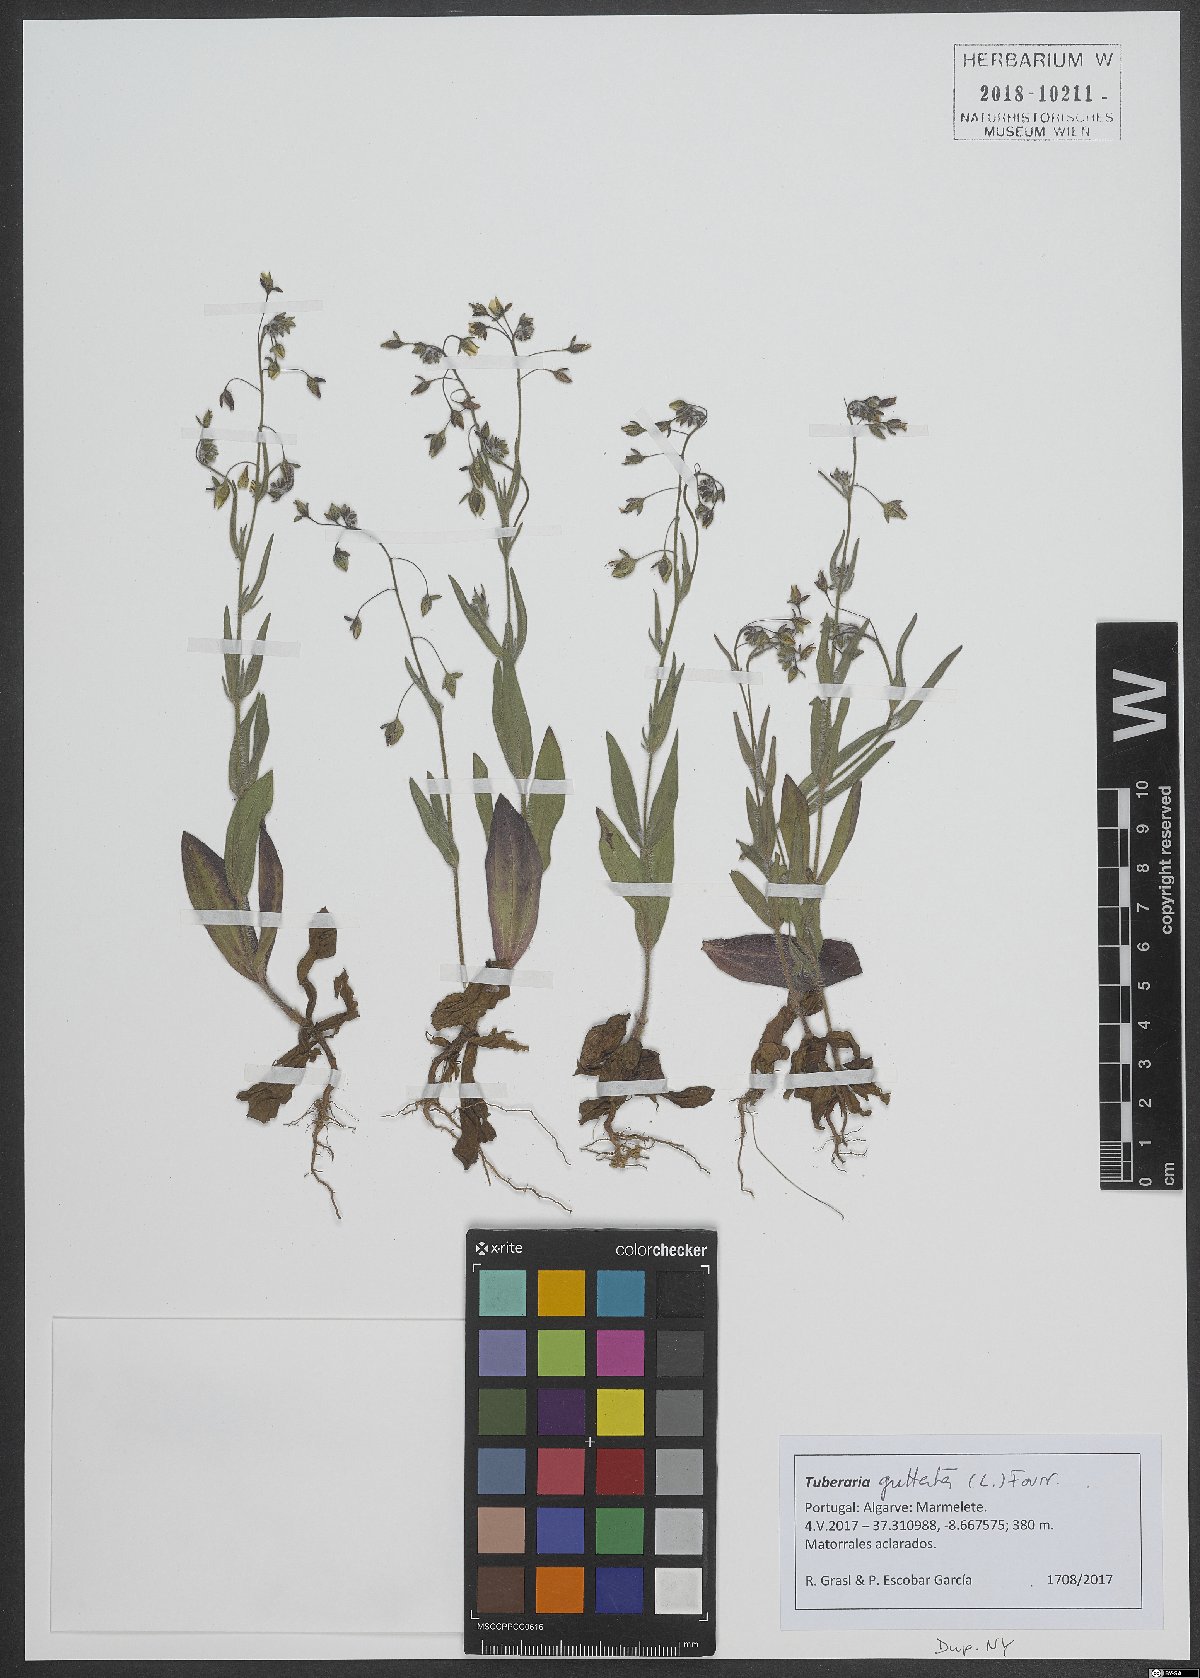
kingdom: Plantae
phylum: Tracheophyta
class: Magnoliopsida
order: Malvales
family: Cistaceae
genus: Tuberaria
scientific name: Tuberaria guttata
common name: Spotted rock-rose
